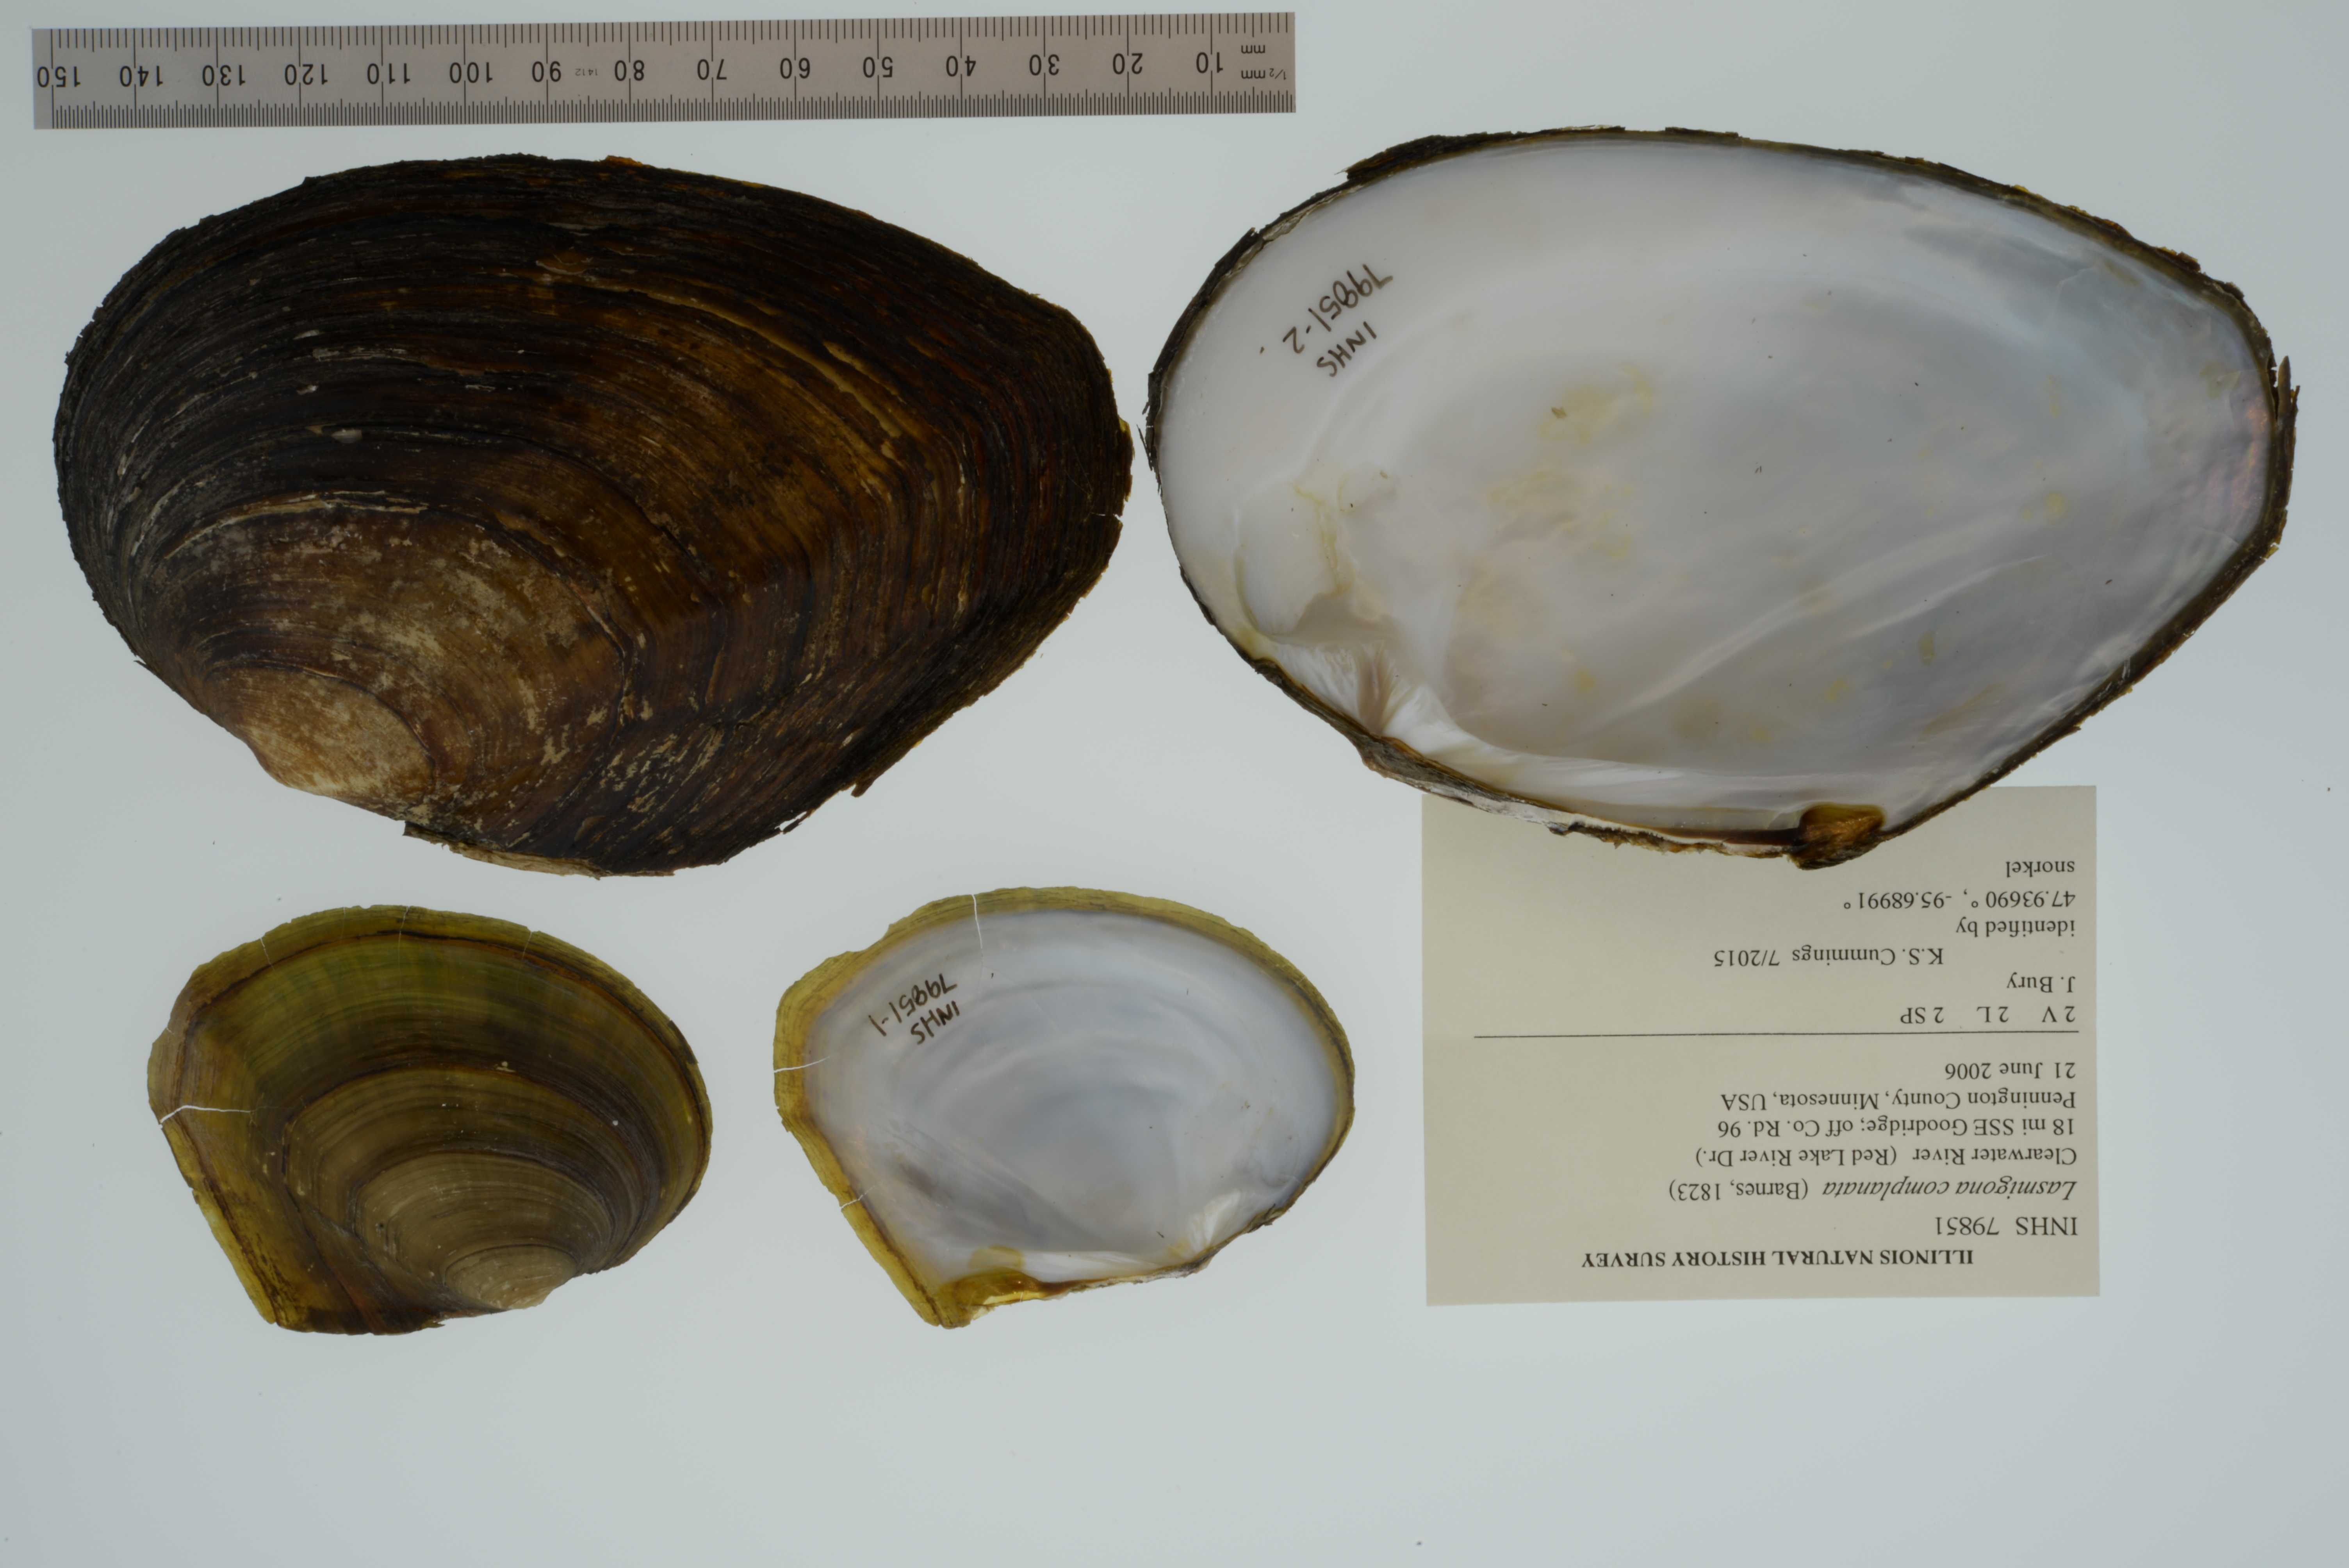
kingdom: Animalia
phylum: Mollusca
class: Bivalvia
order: Unionida
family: Unionidae
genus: Lasmigona
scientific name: Lasmigona complanata
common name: White heelsplitter
